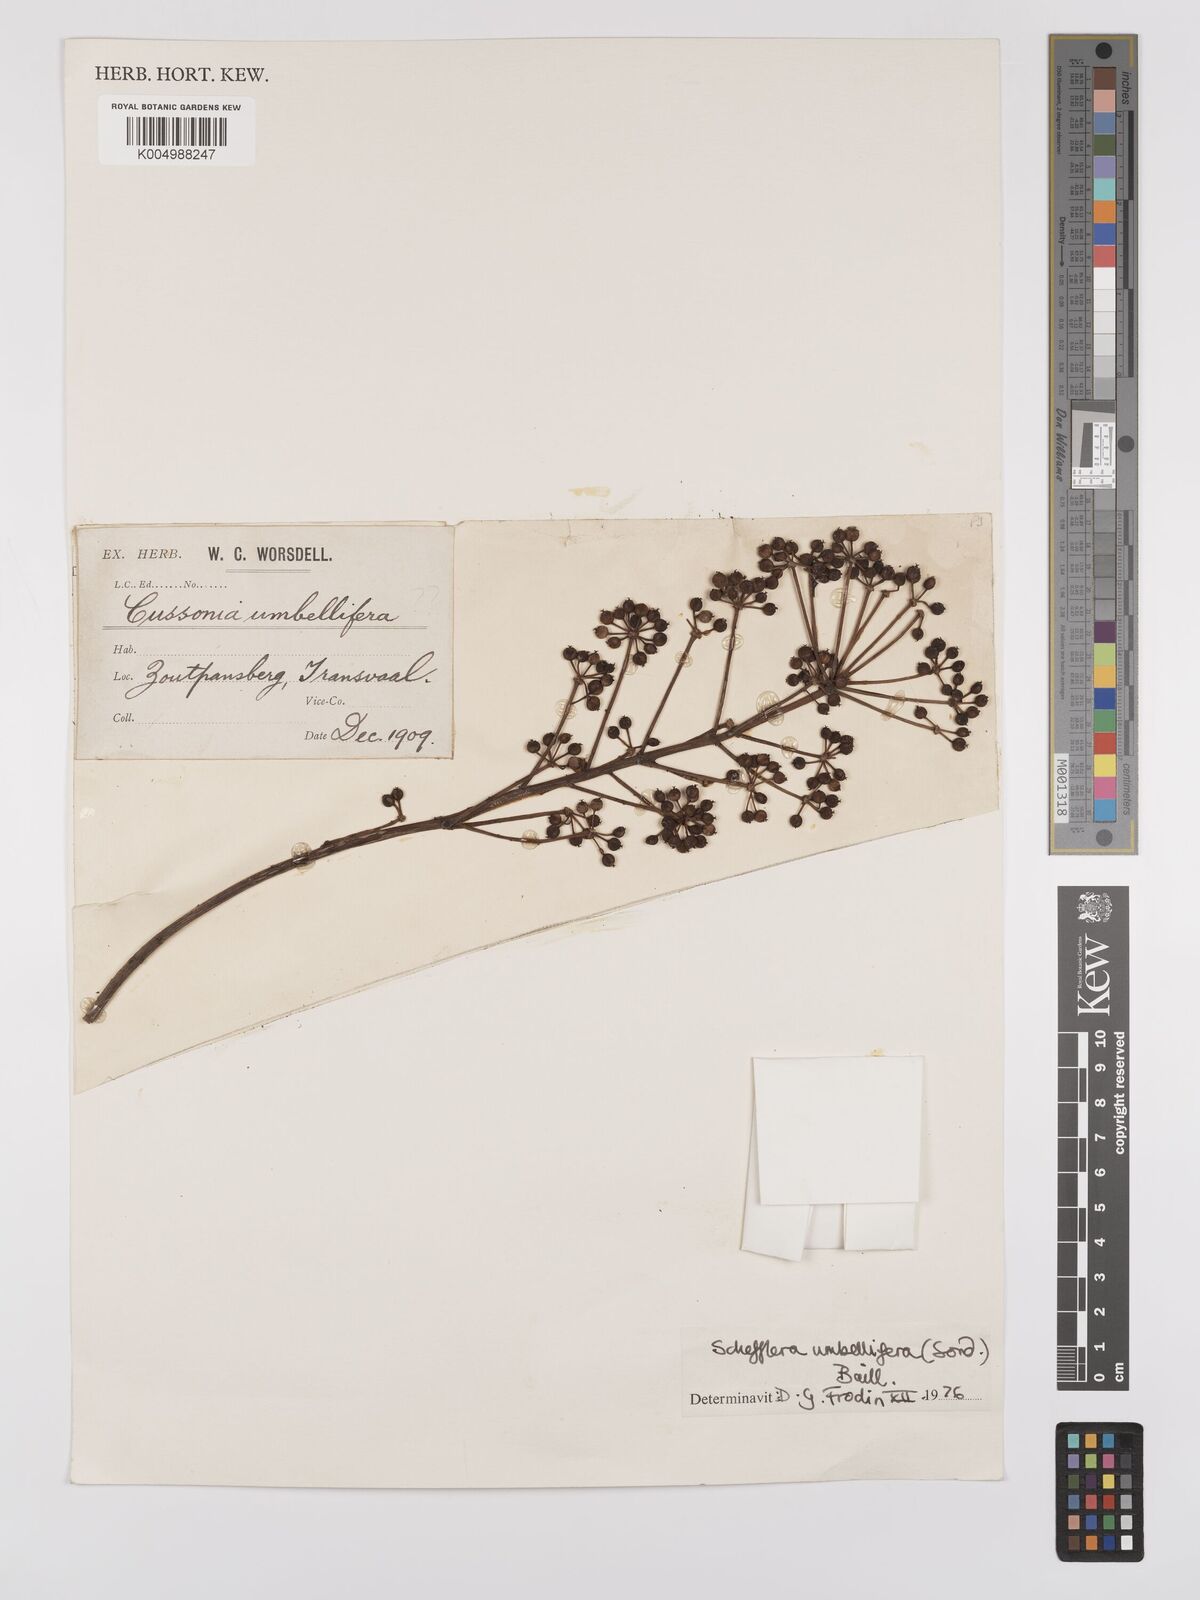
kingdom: Plantae
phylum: Tracheophyta
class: Magnoliopsida
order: Apiales
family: Araliaceae
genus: Neocussonia
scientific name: Neocussonia umbellifera
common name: False cabbage tree
